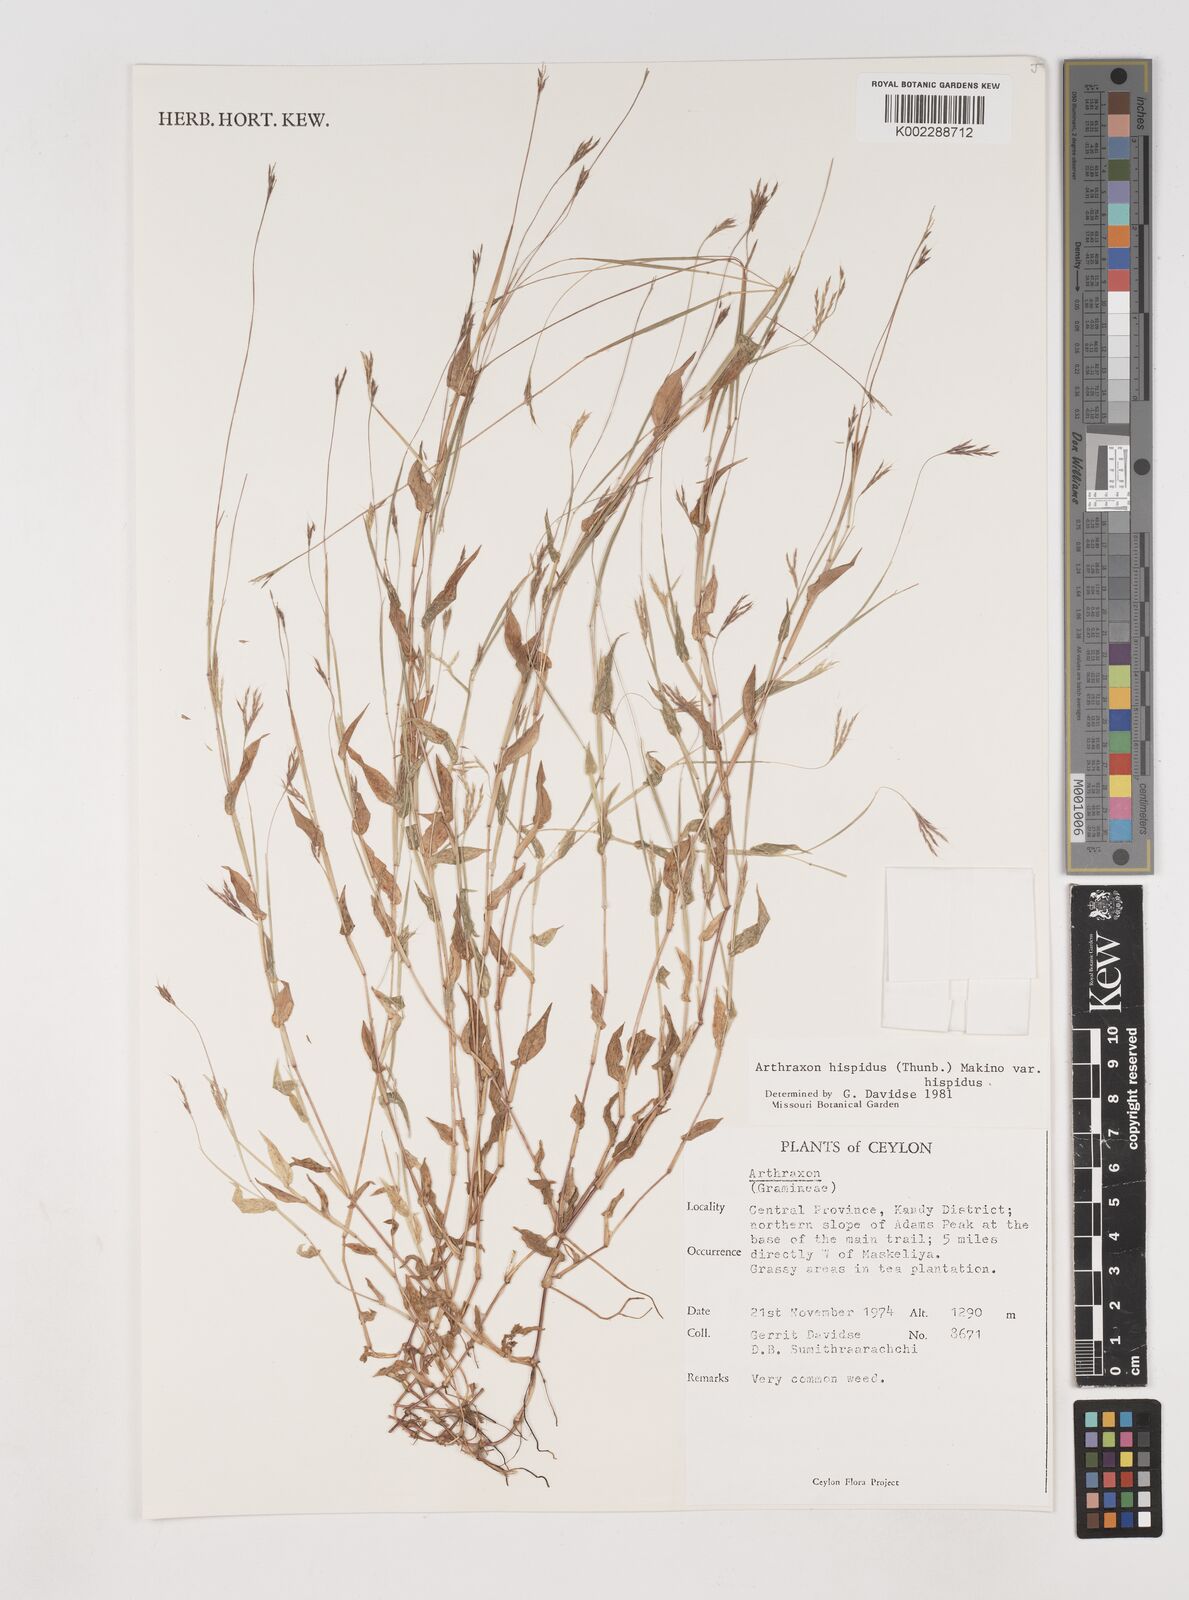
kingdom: Plantae
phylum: Tracheophyta
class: Liliopsida
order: Poales
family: Poaceae
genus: Arthraxon
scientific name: Arthraxon hispidus
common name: Small carpgrass
